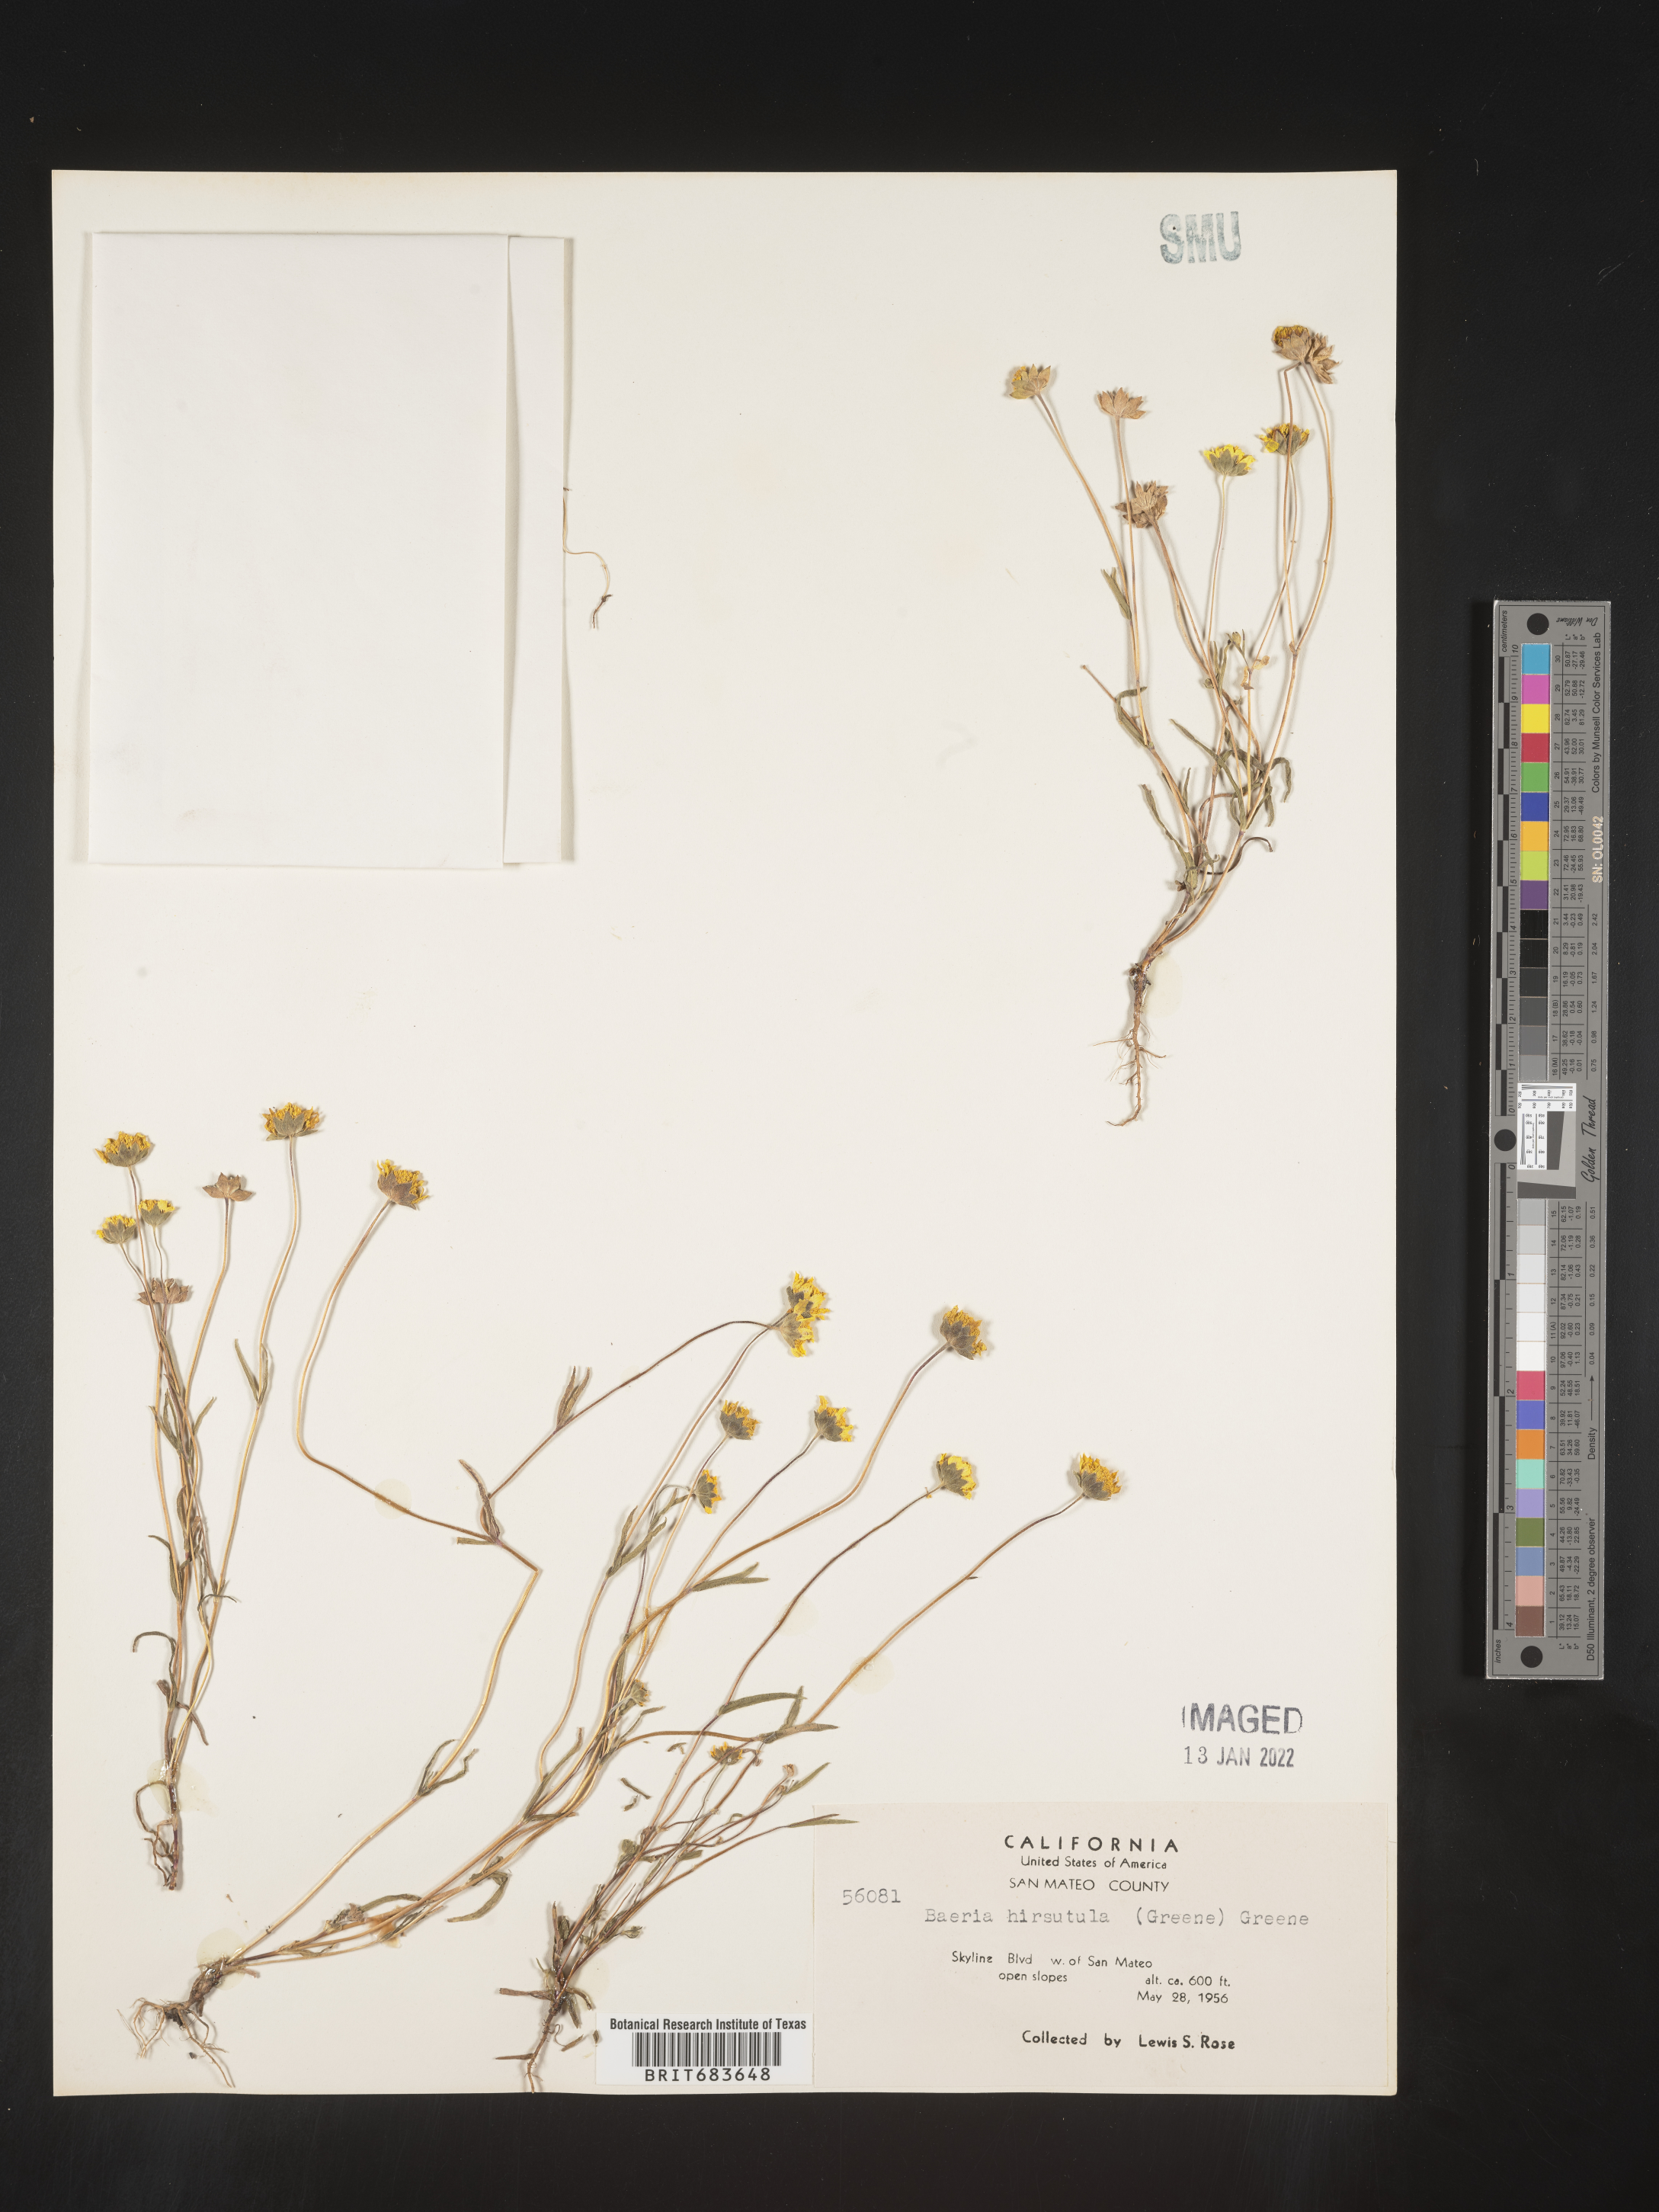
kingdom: Plantae
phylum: Tracheophyta
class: Magnoliopsida
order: Asterales
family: Asteraceae
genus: Lasthenia
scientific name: Lasthenia
